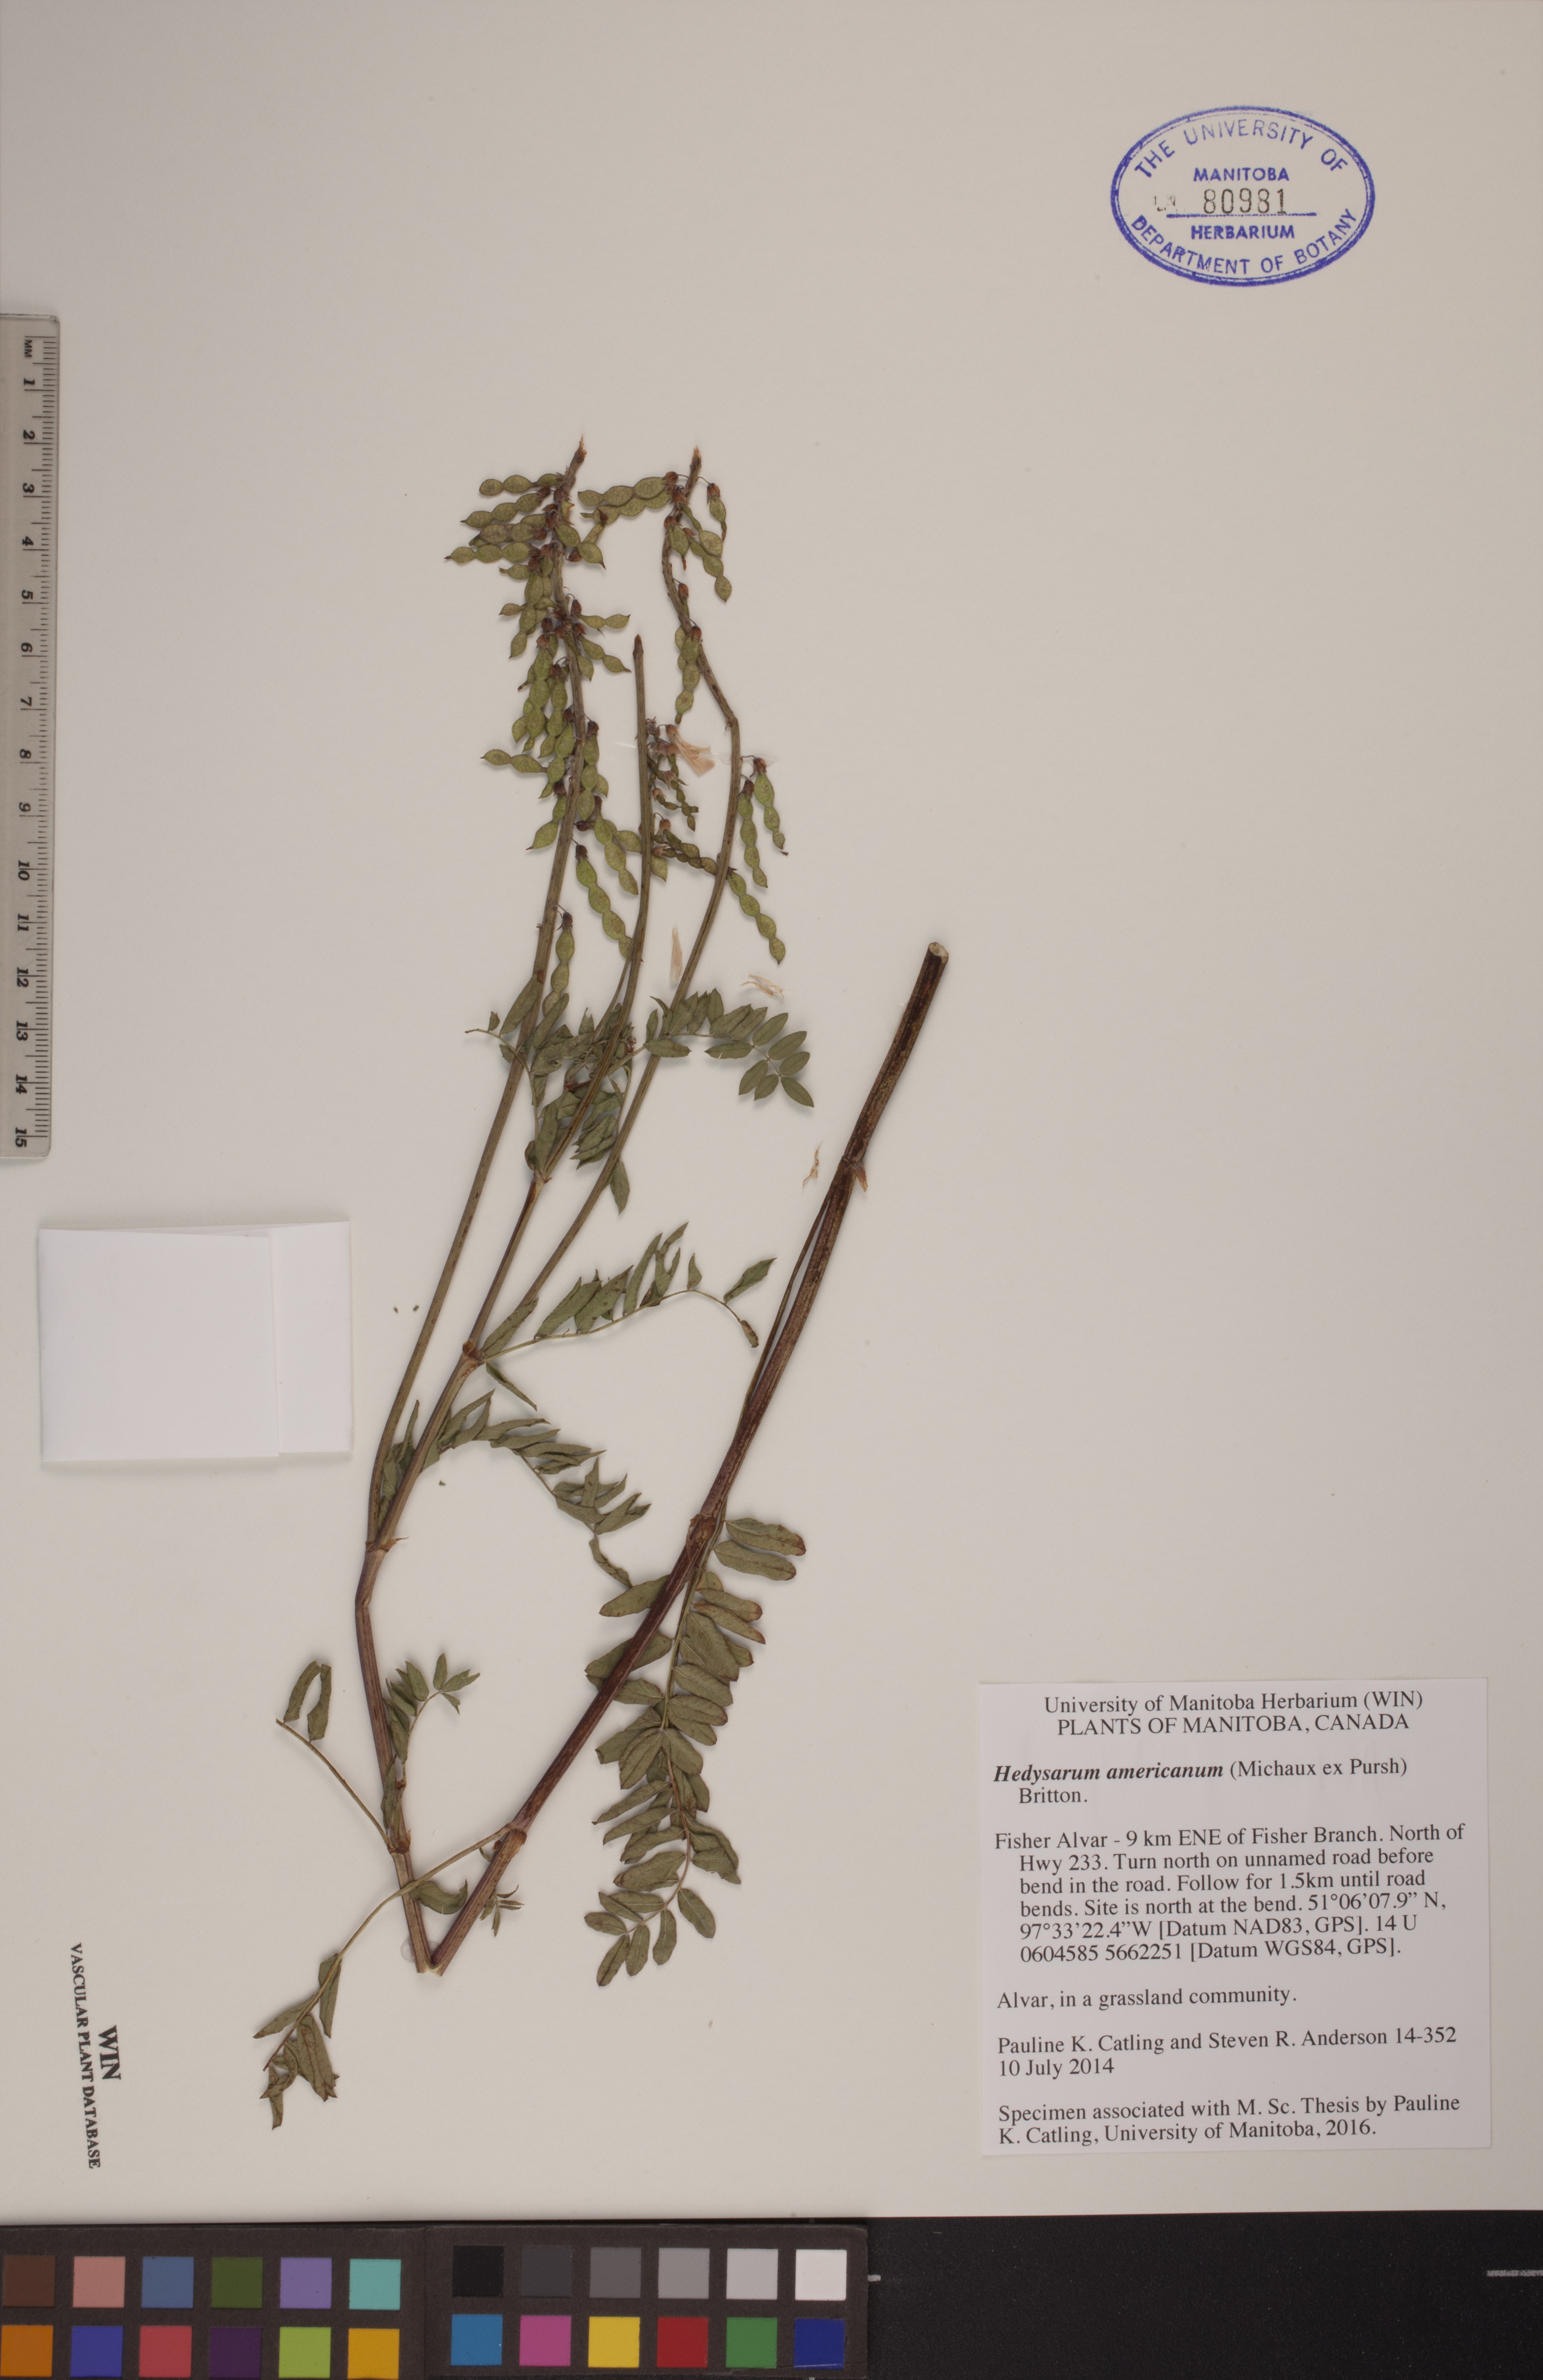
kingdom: Plantae
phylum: Tracheophyta
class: Magnoliopsida
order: Fabales
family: Fabaceae
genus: Hedysarum
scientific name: Hedysarum americanum
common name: Alpine hedysarum
